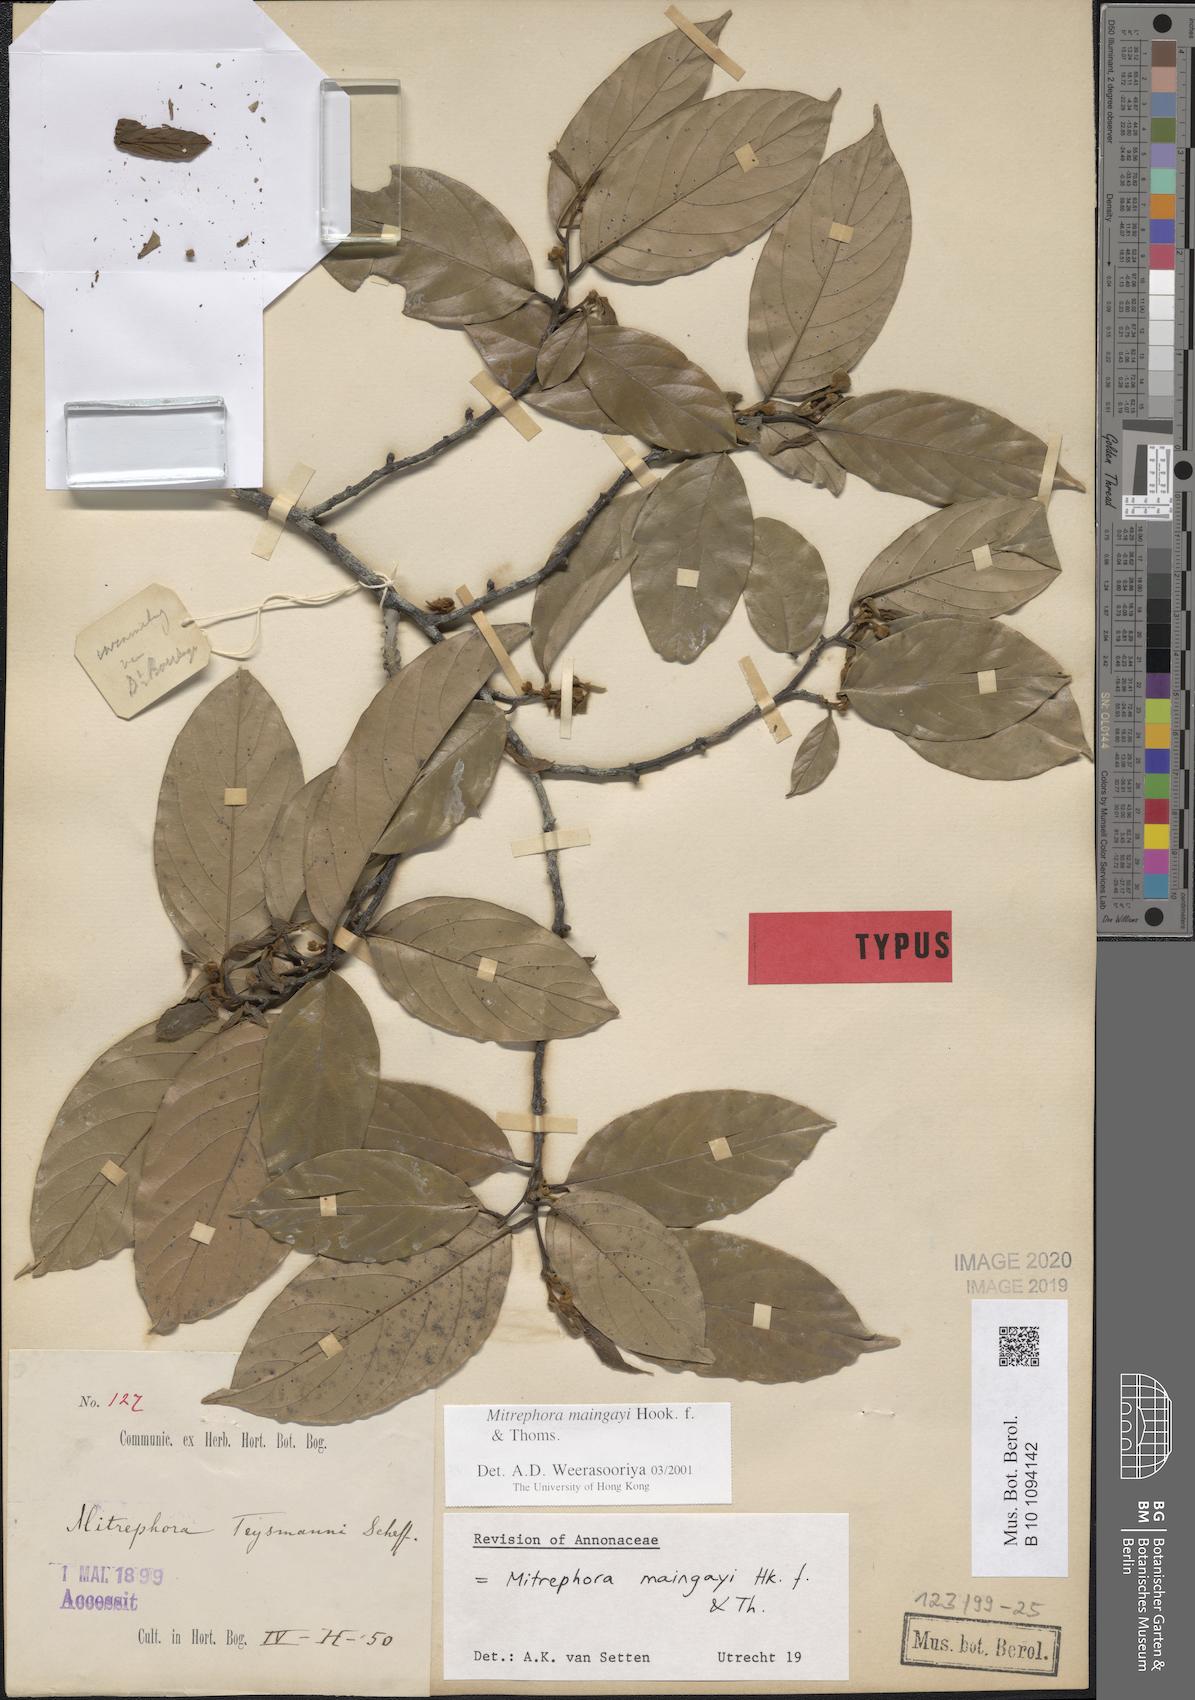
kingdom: Plantae
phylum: Tracheophyta
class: Magnoliopsida
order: Magnoliales
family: Annonaceae
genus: Mitrephora
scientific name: Mitrephora teysmannii
